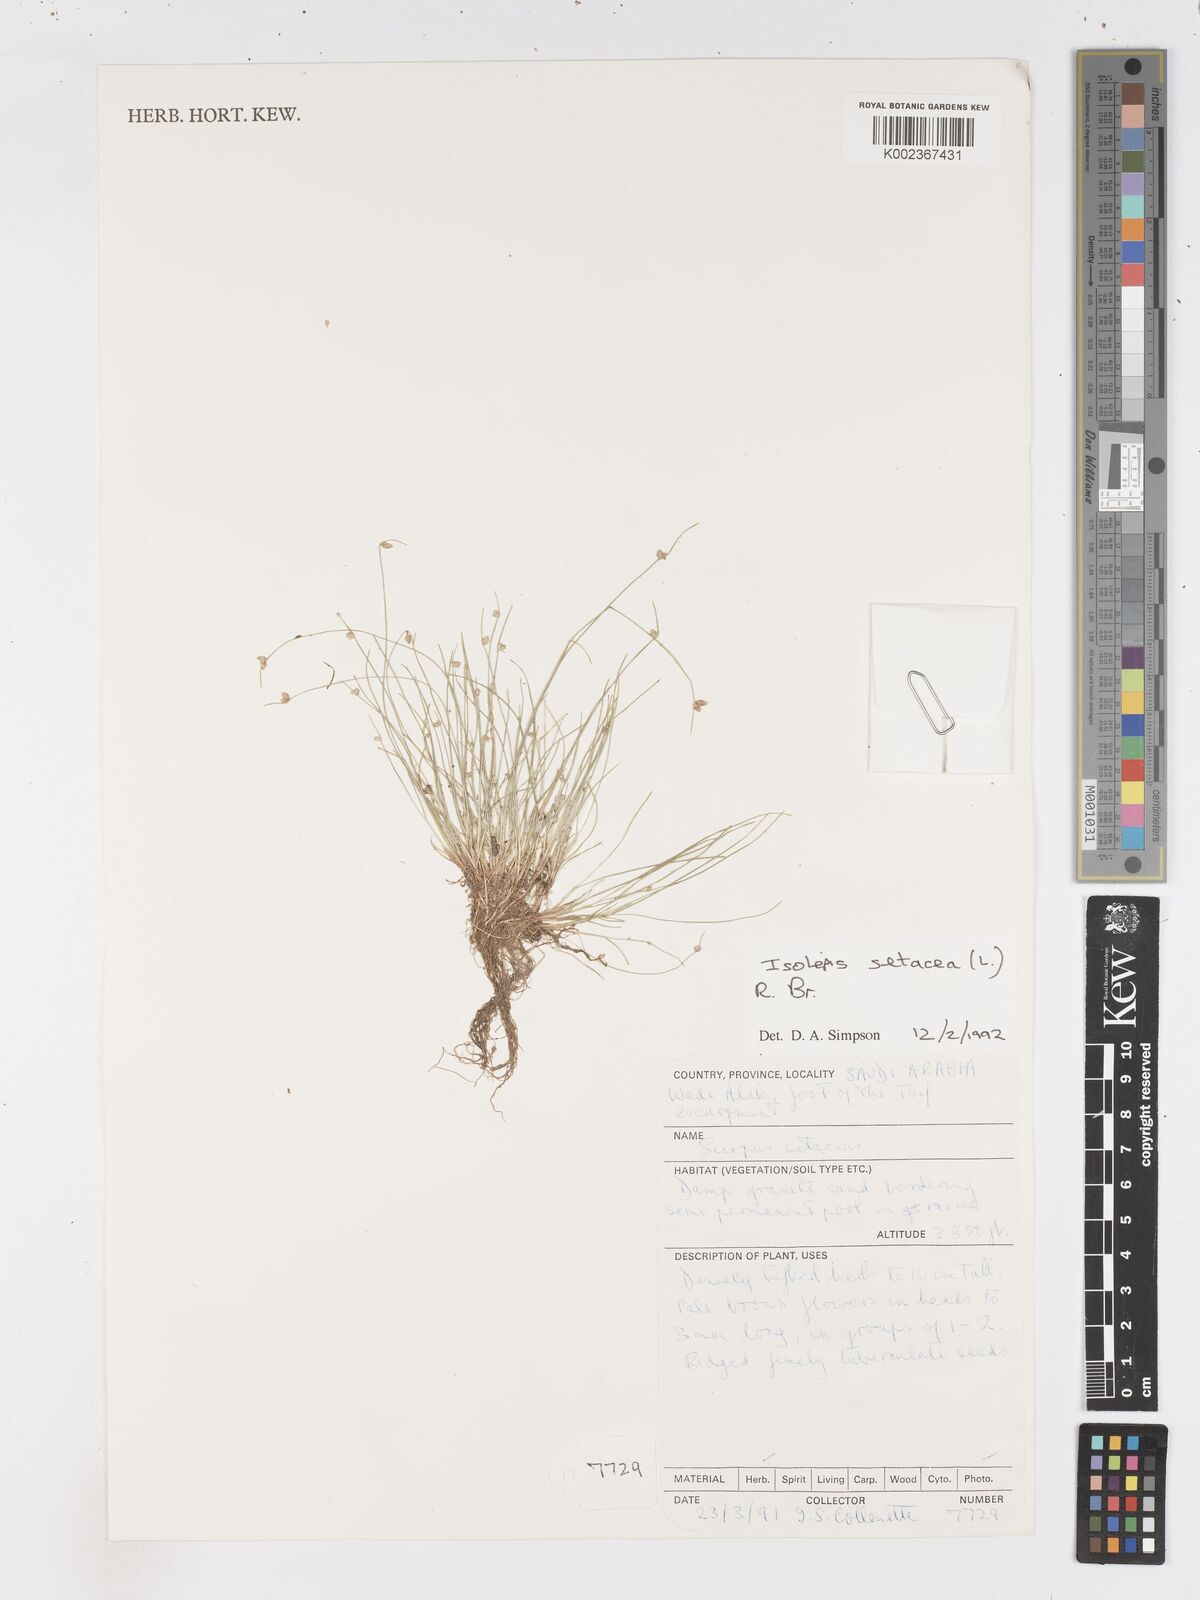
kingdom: Plantae
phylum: Tracheophyta
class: Liliopsida
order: Poales
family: Cyperaceae
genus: Isolepis
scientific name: Isolepis setacea
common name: Bristle club-rush
